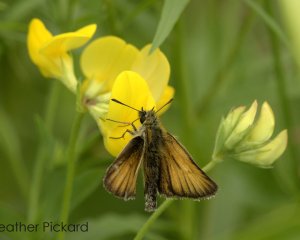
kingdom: Animalia
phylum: Arthropoda
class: Insecta
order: Lepidoptera
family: Hesperiidae
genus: Thymelicus
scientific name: Thymelicus lineola
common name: European Skipper
